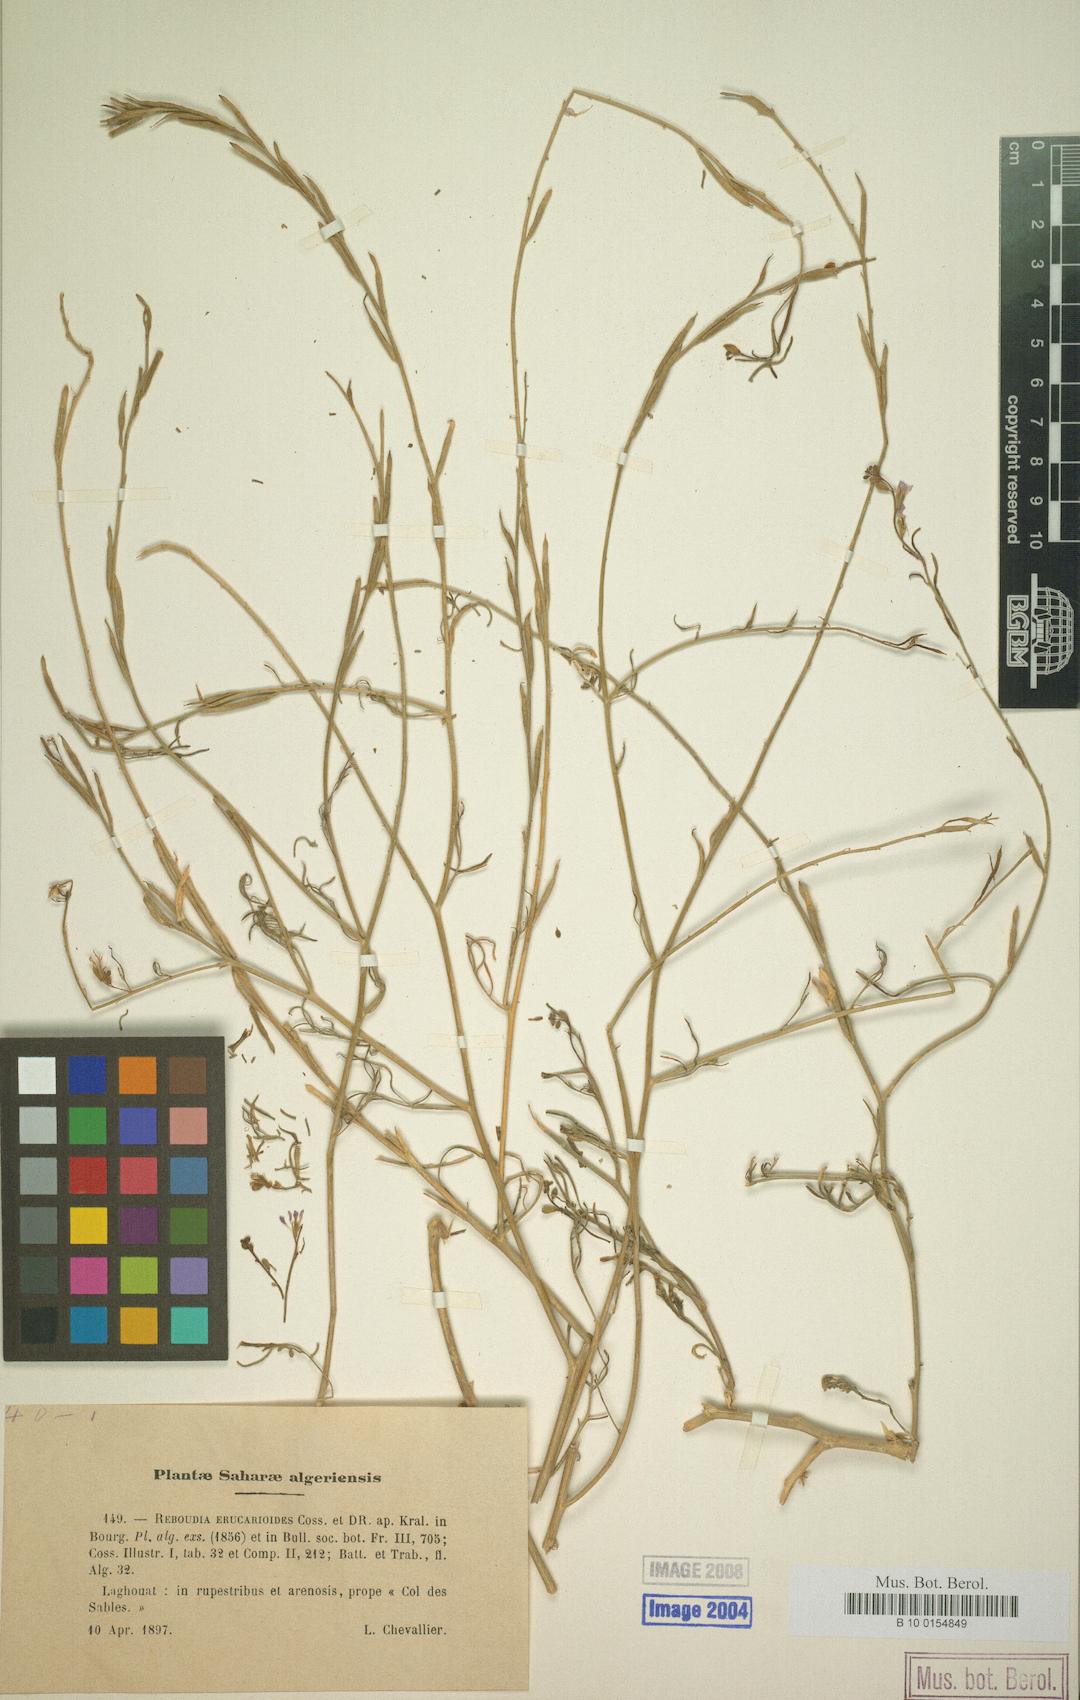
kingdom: Plantae
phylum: Tracheophyta
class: Magnoliopsida
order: Brassicales
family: Brassicaceae
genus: Erucaria
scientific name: Erucaria erucarioides
